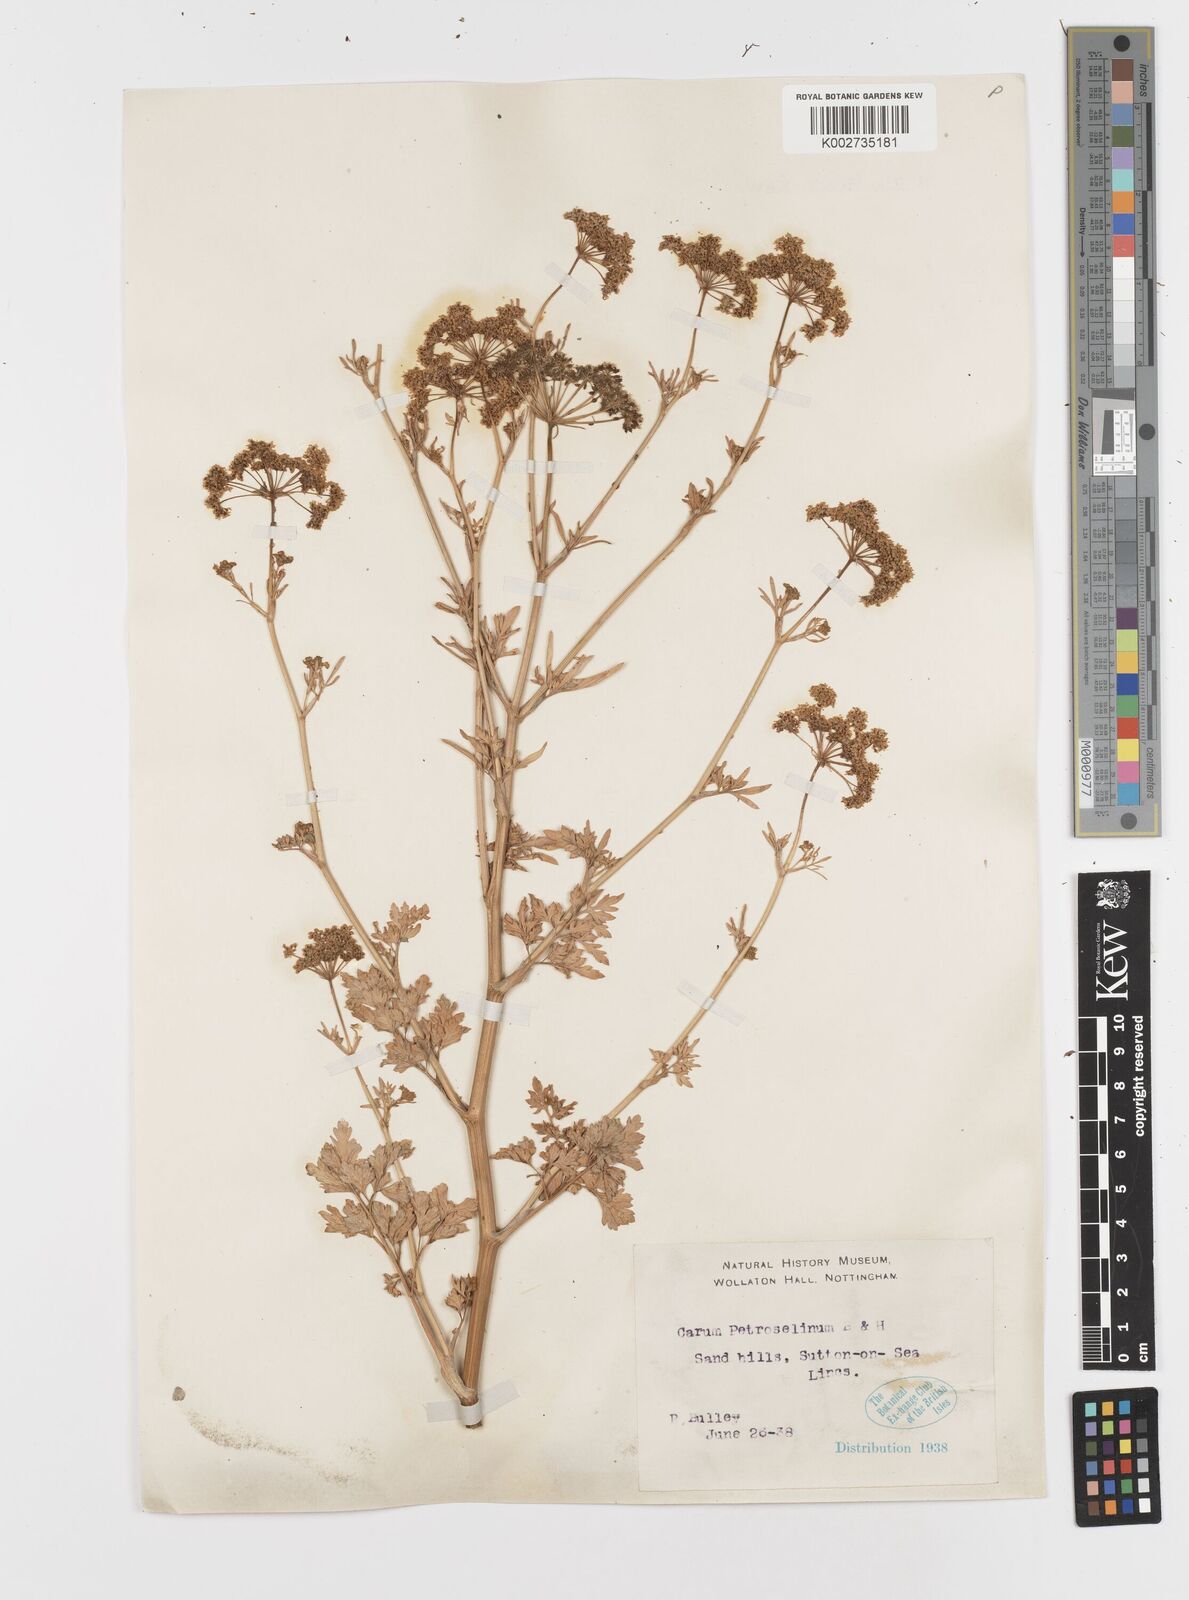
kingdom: Plantae
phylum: Tracheophyta
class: Magnoliopsida
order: Apiales
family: Apiaceae
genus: Petroselinum
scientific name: Petroselinum crispum
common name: Parsley
